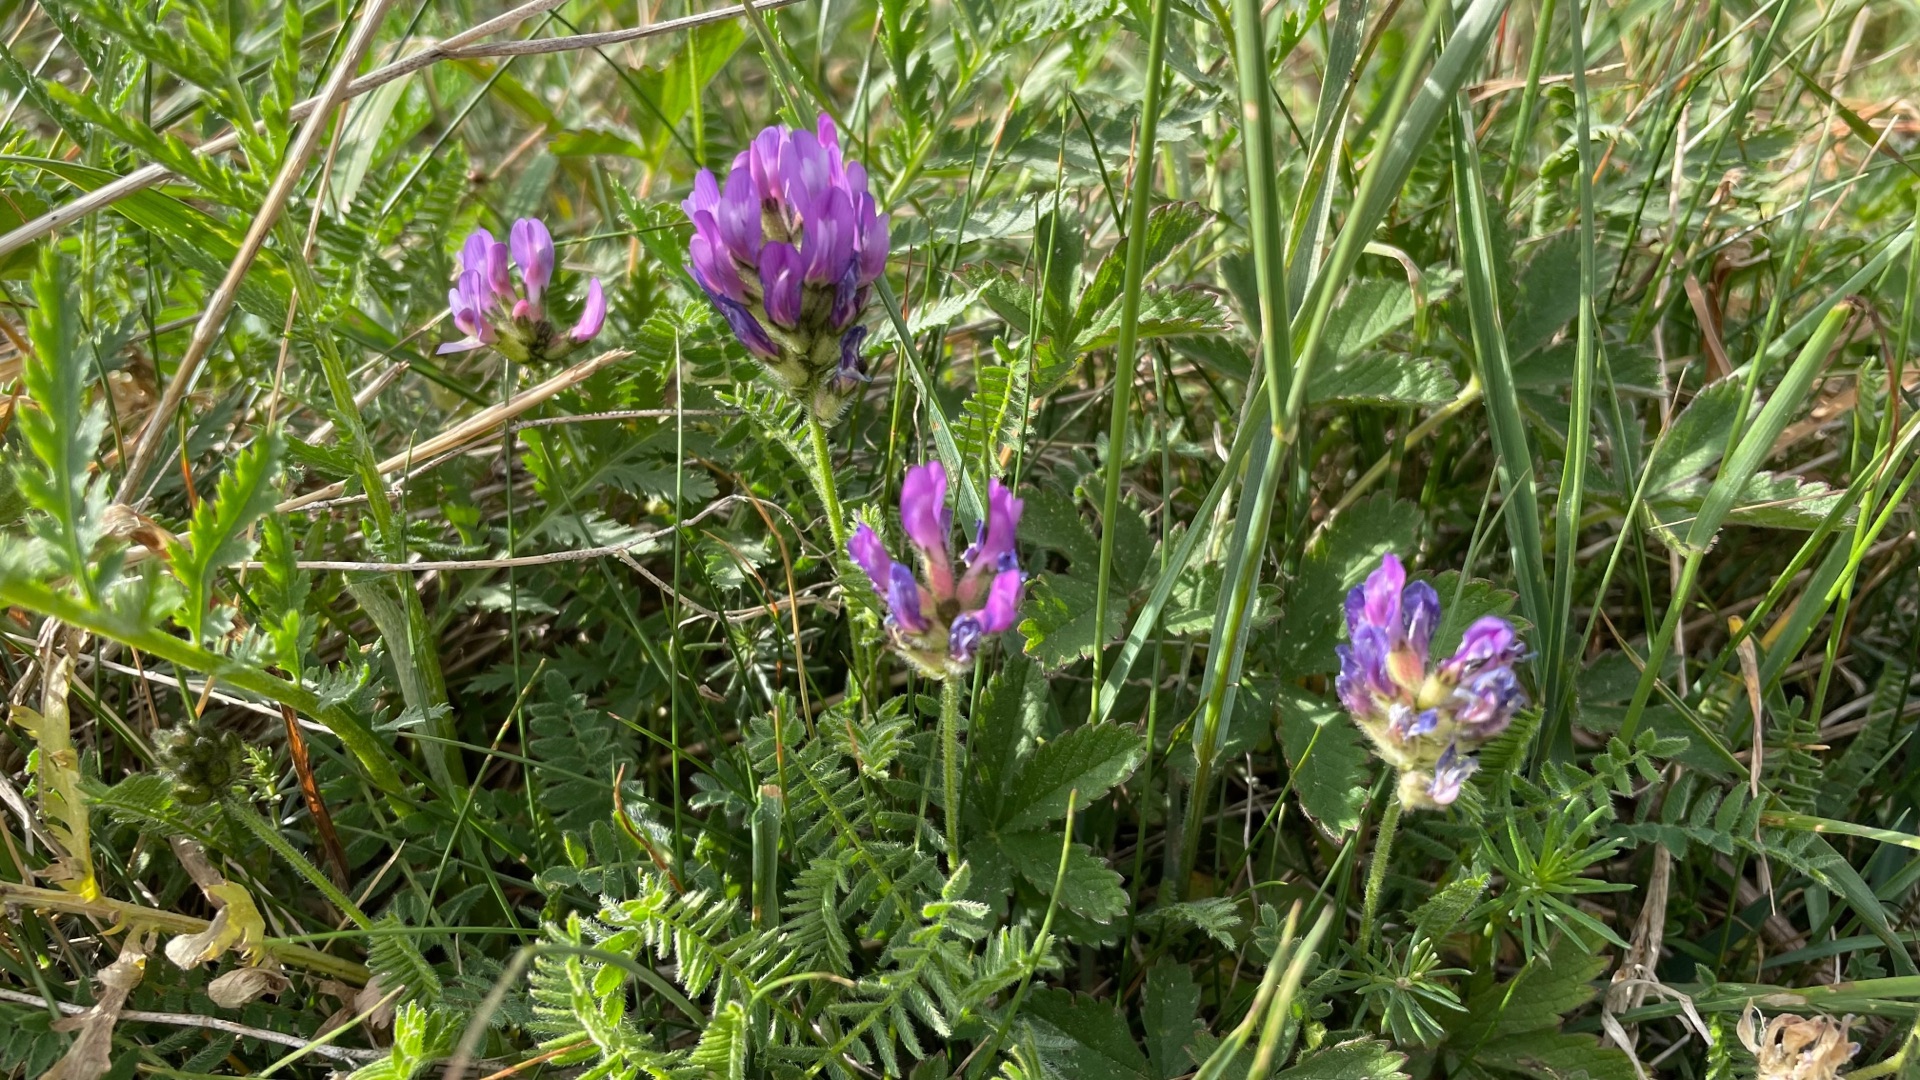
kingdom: Plantae
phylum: Tracheophyta
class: Magnoliopsida
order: Fabales
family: Fabaceae
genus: Astragalus
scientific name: Astragalus danicus
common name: Dansk astragel
